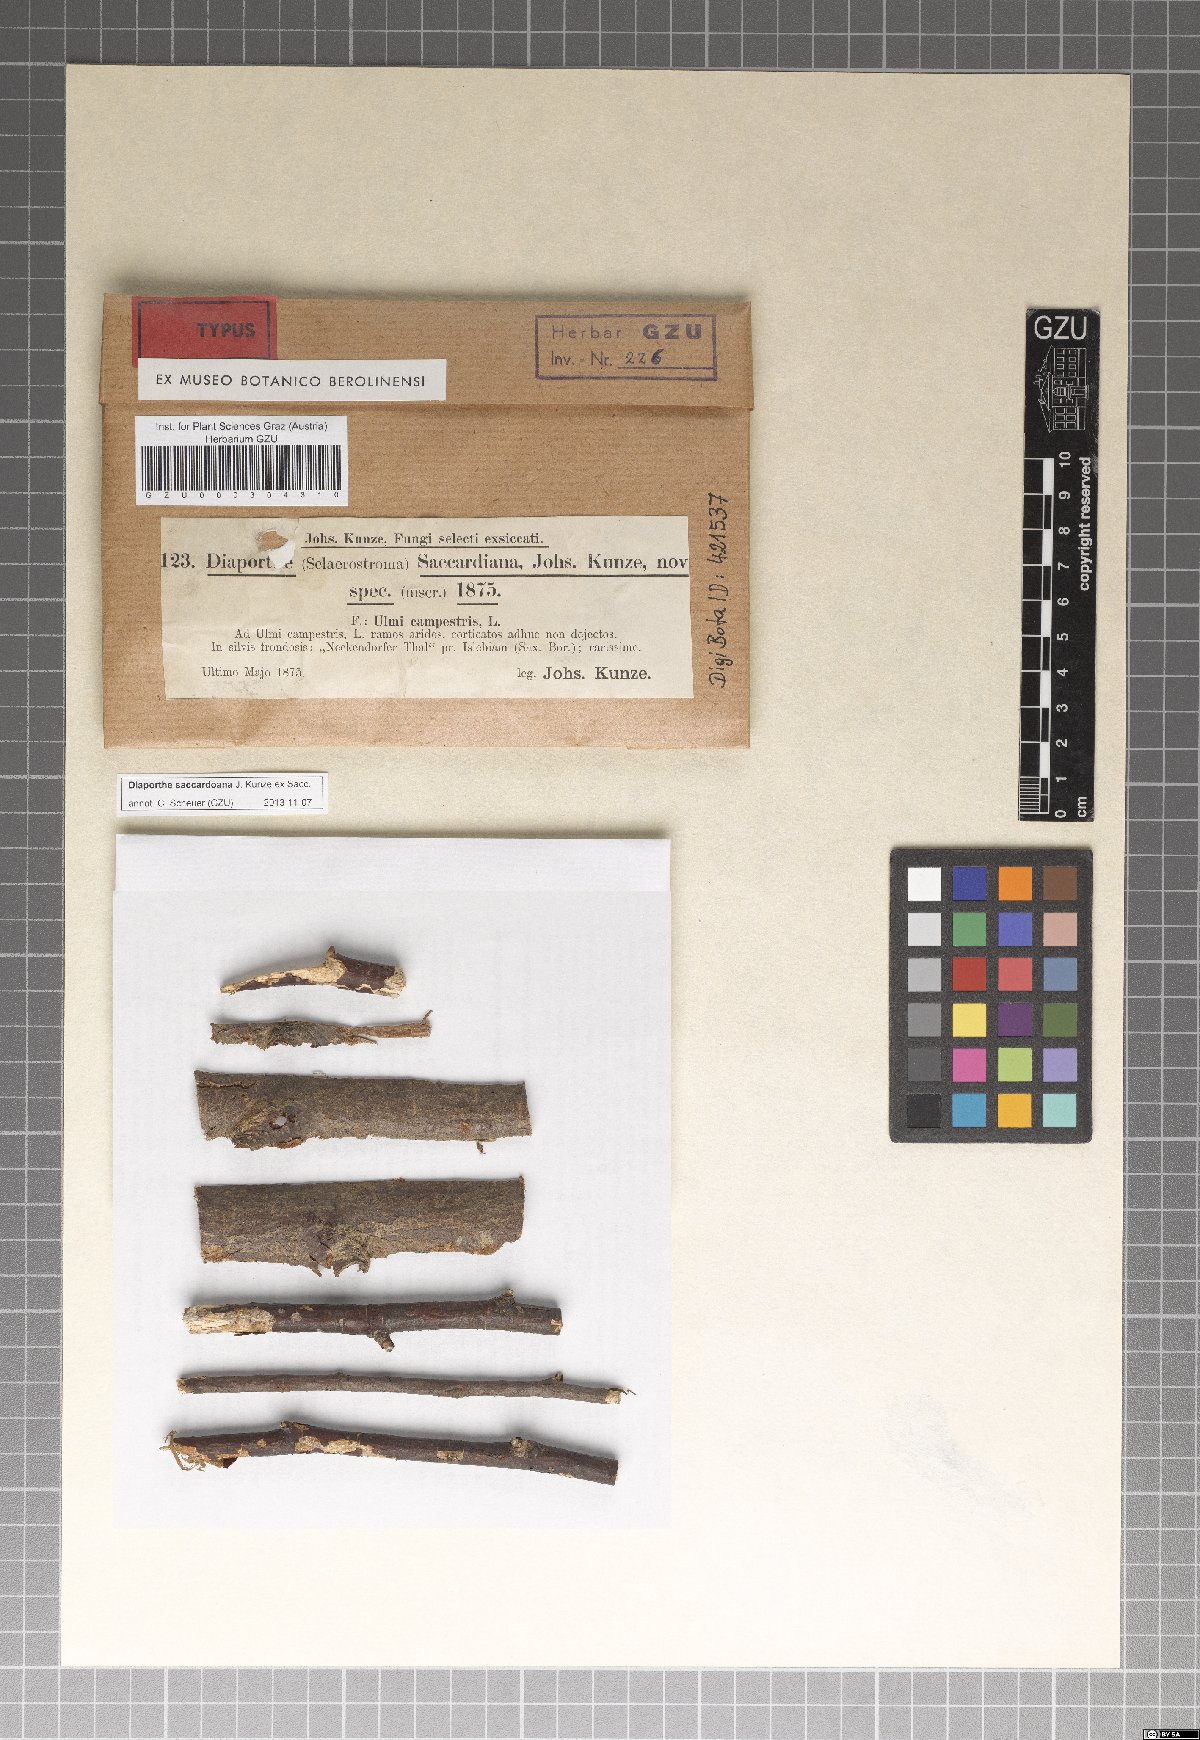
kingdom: Fungi
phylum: Ascomycota
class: Sordariomycetes
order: Diaporthales
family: Diaporthaceae
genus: Diaporthe
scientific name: Diaporthe saccardoana
